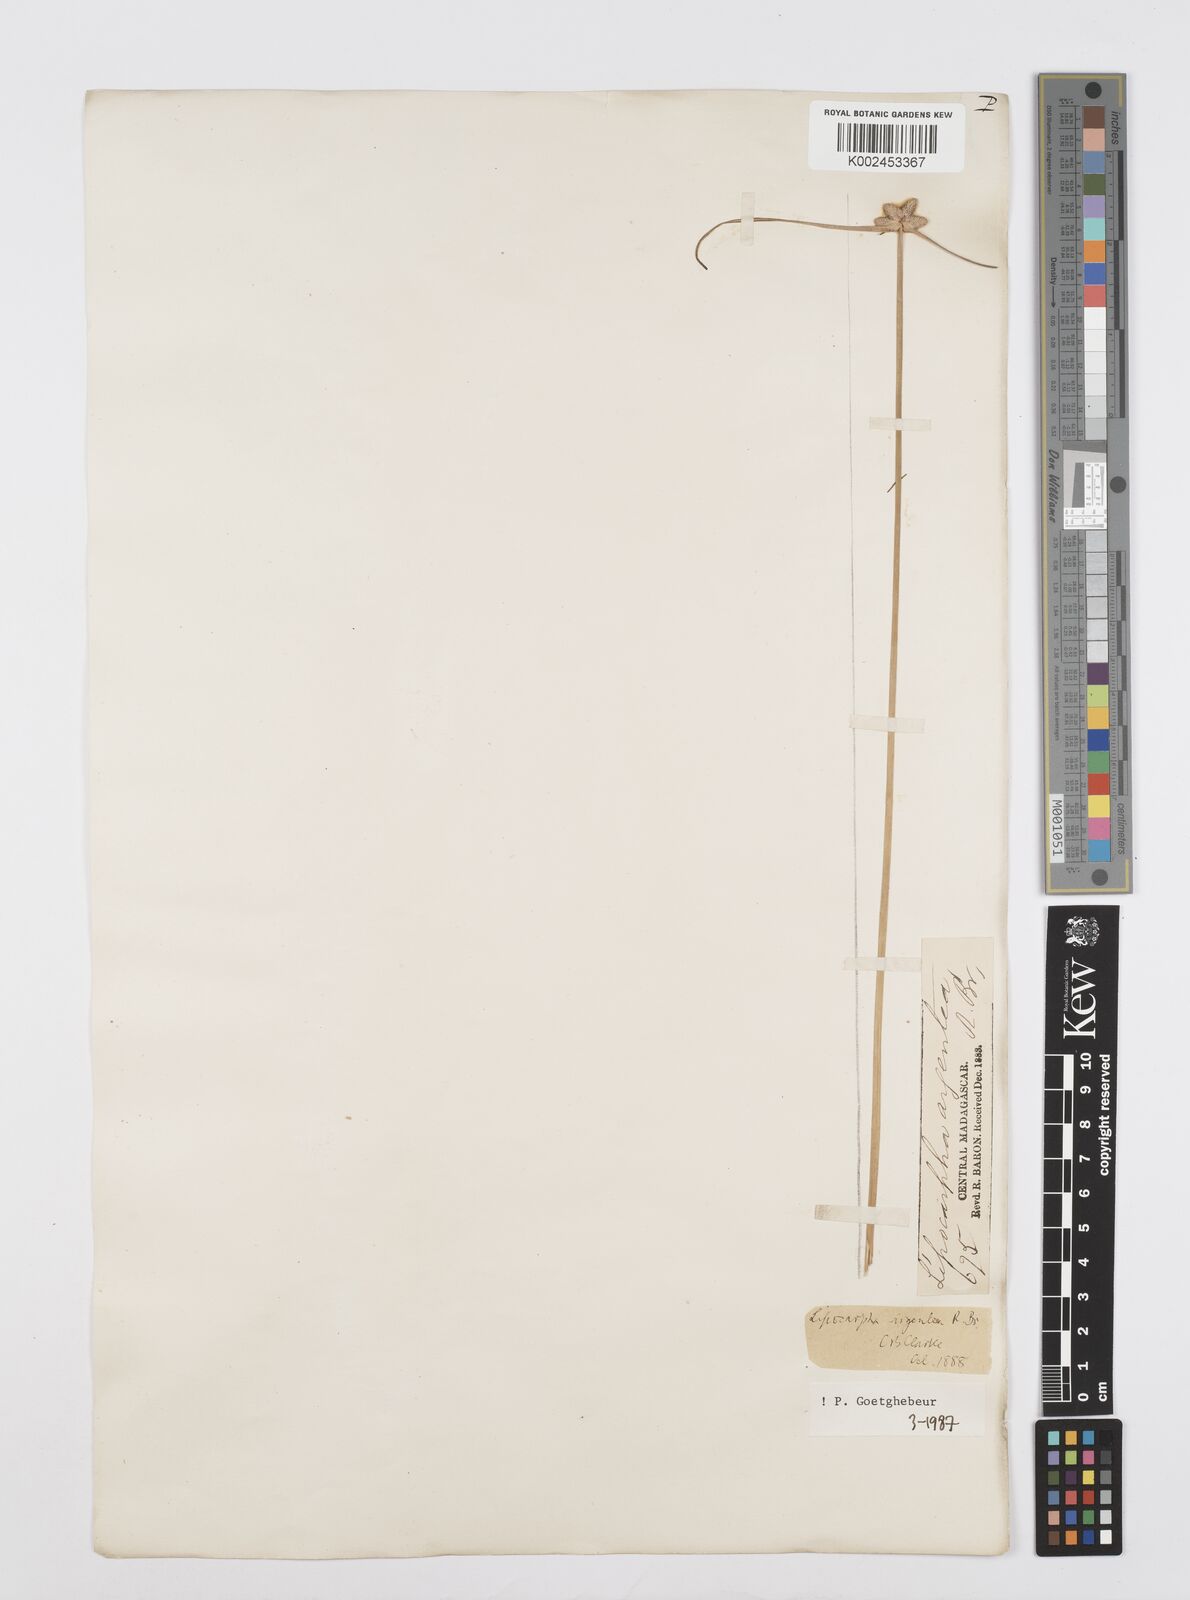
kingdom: Plantae
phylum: Tracheophyta
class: Liliopsida
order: Poales
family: Cyperaceae
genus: Cyperus
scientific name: Cyperus
